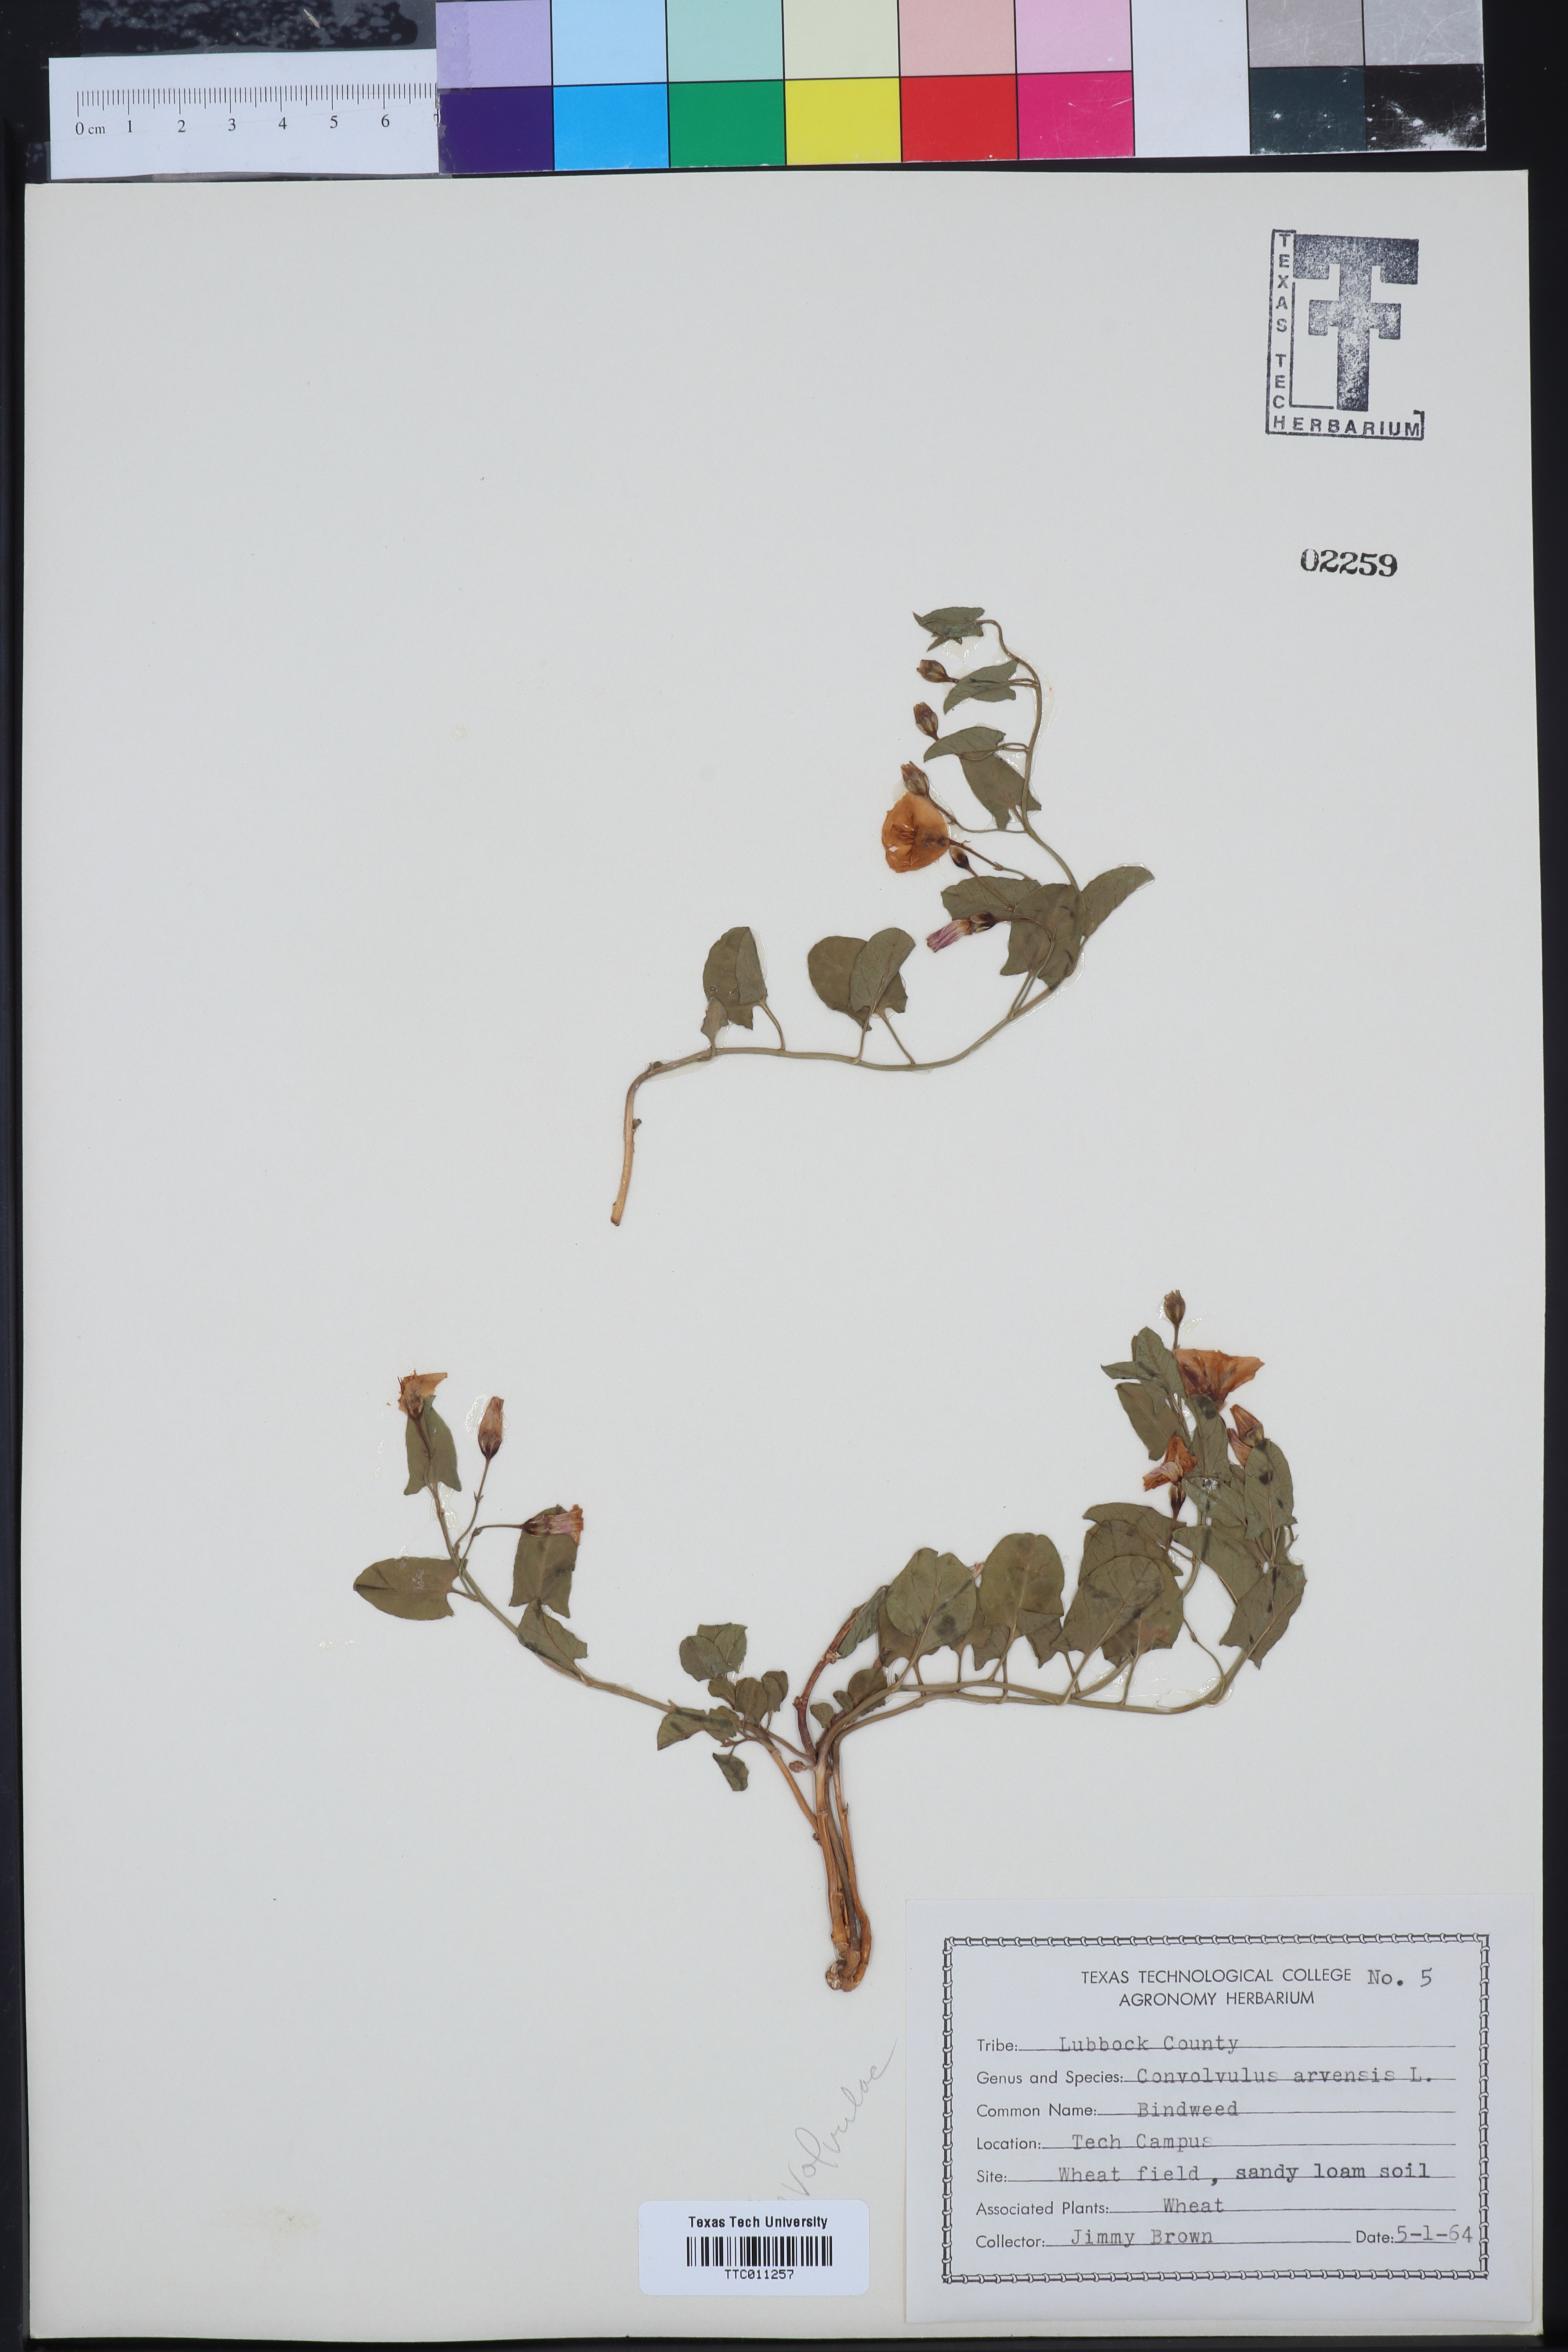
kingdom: Plantae
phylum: Tracheophyta
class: Magnoliopsida
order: Solanales
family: Convolvulaceae
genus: Convolvulus
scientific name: Convolvulus arvensis
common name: Field bindweed
